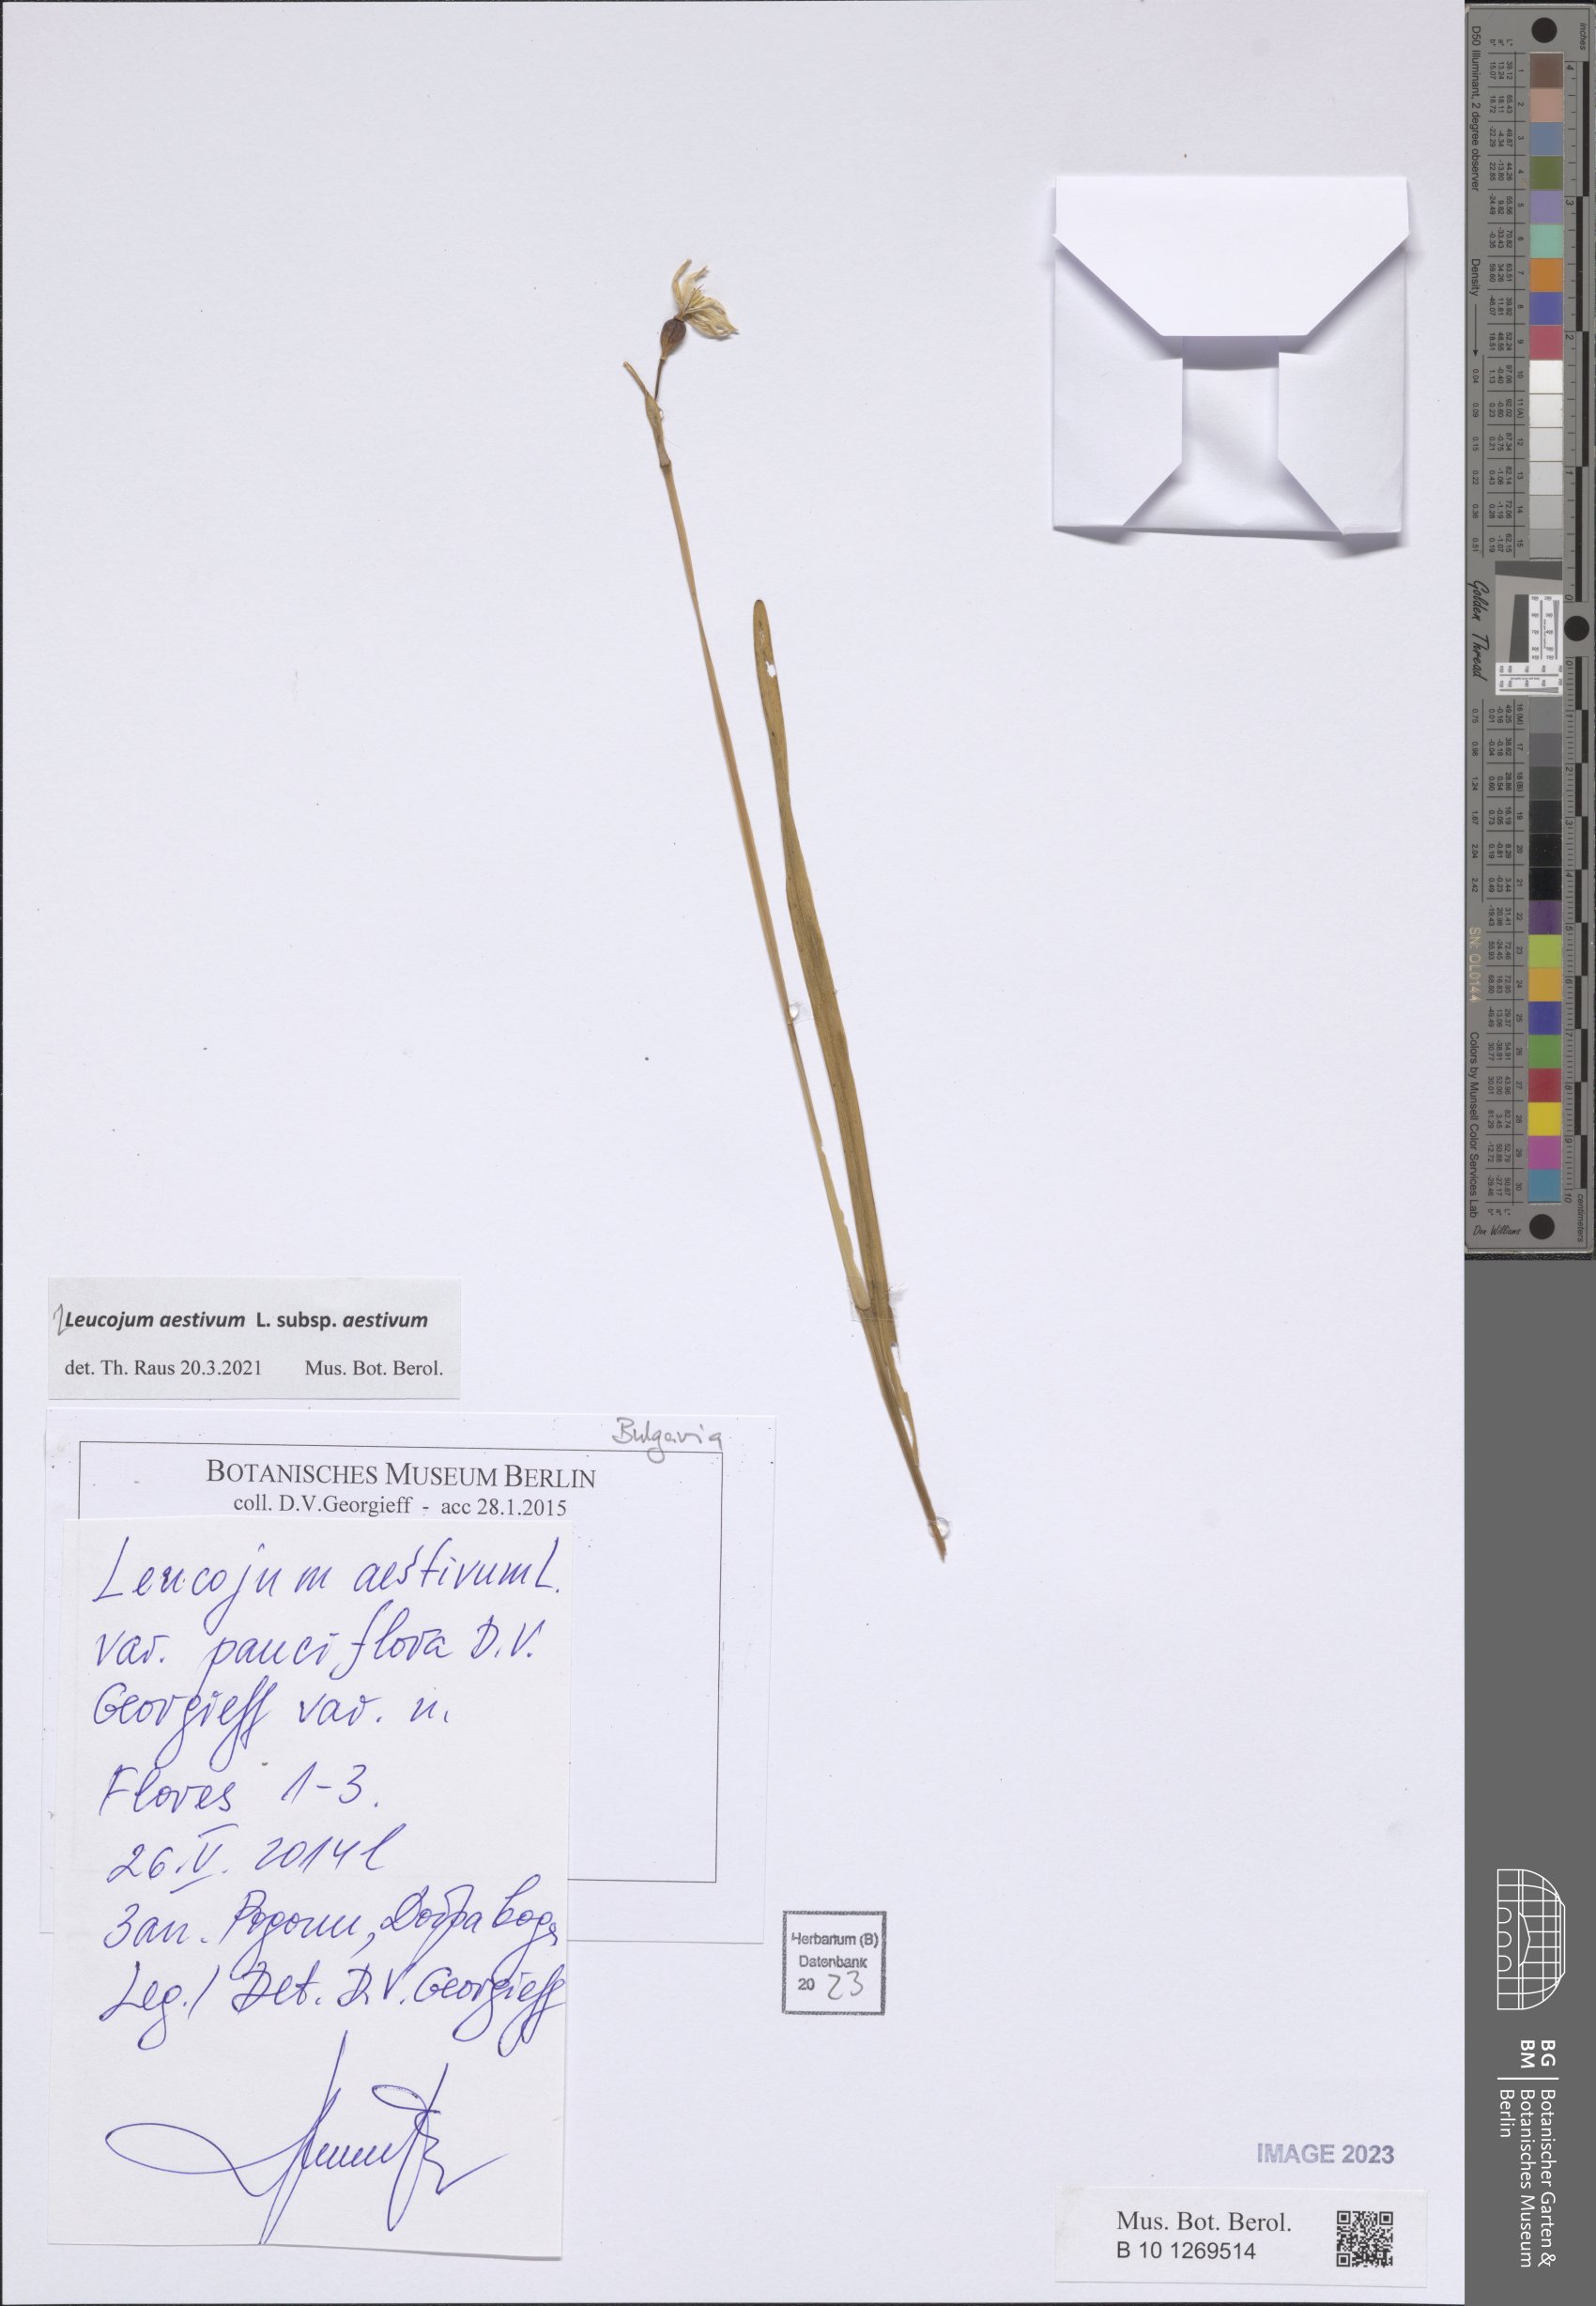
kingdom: Plantae
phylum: Tracheophyta
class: Liliopsida
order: Asparagales
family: Amaryllidaceae
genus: Leucojum
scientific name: Leucojum aestivum
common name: Summer snowflake
